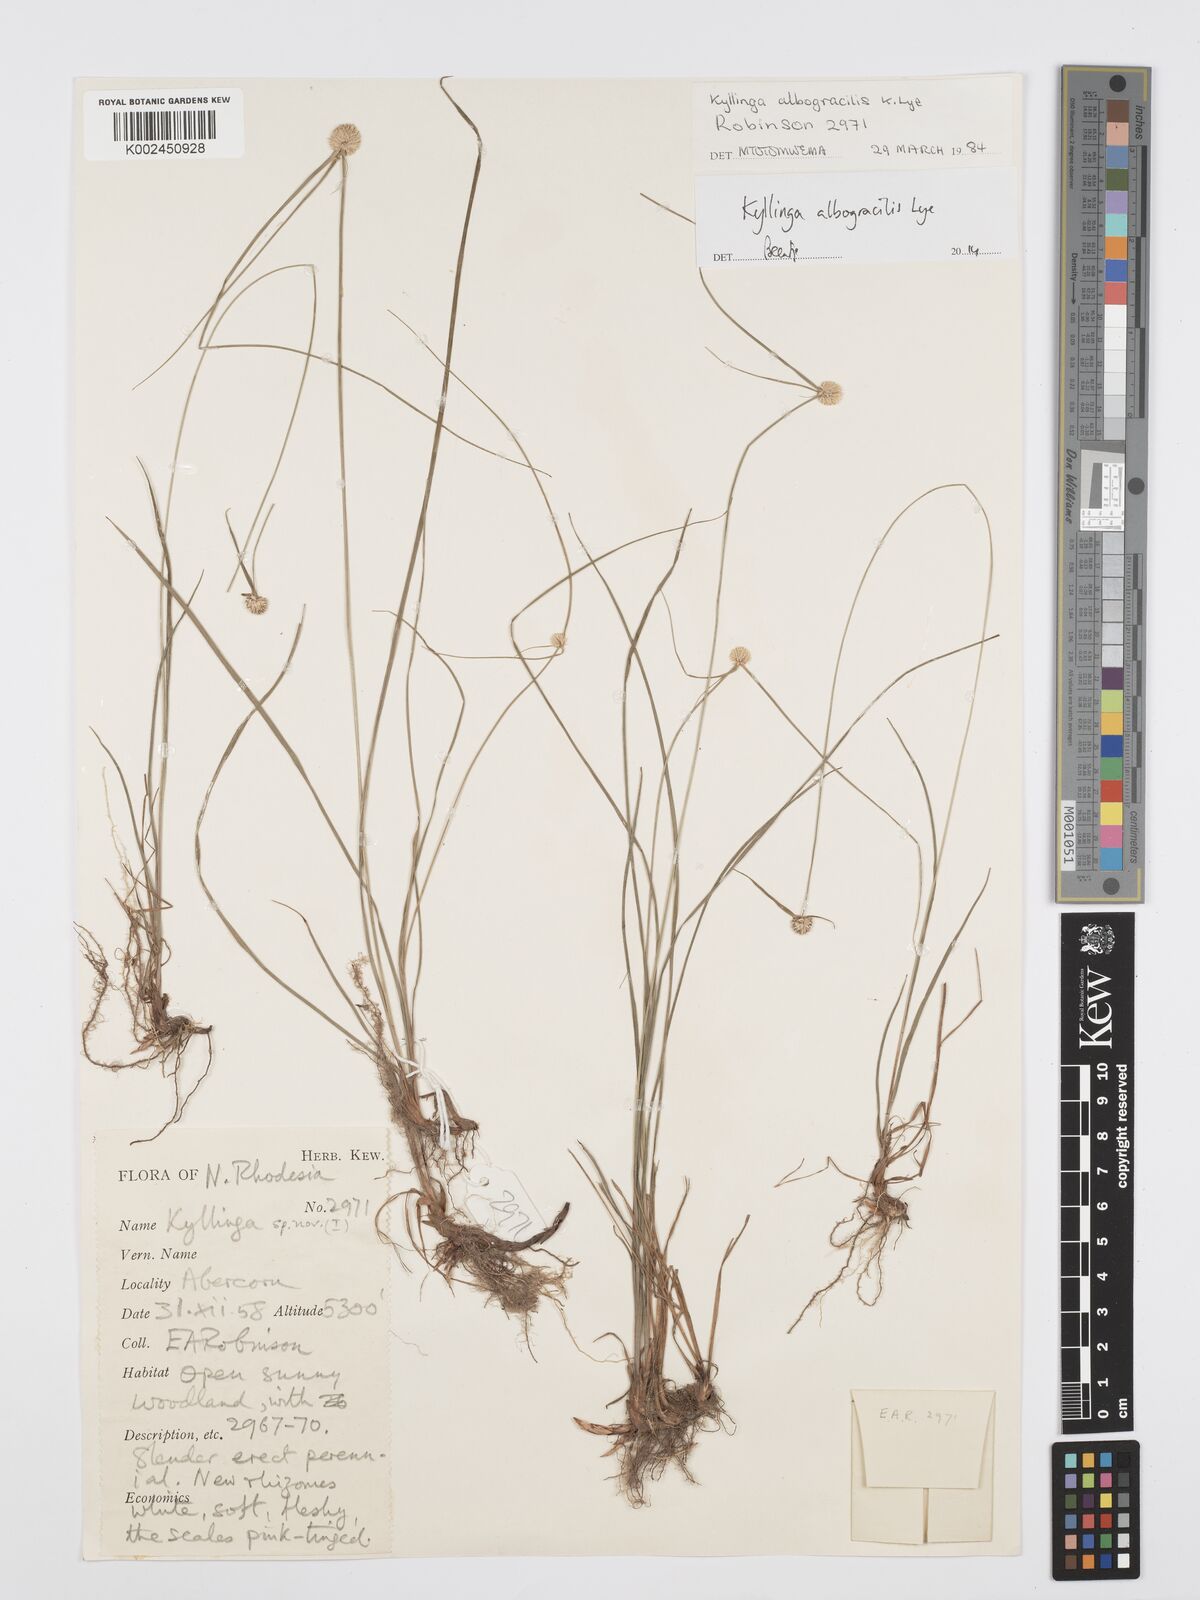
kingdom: Plantae
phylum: Tracheophyta
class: Liliopsida
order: Poales
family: Cyperaceae
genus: Cyperus
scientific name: Cyperus albogracilis
